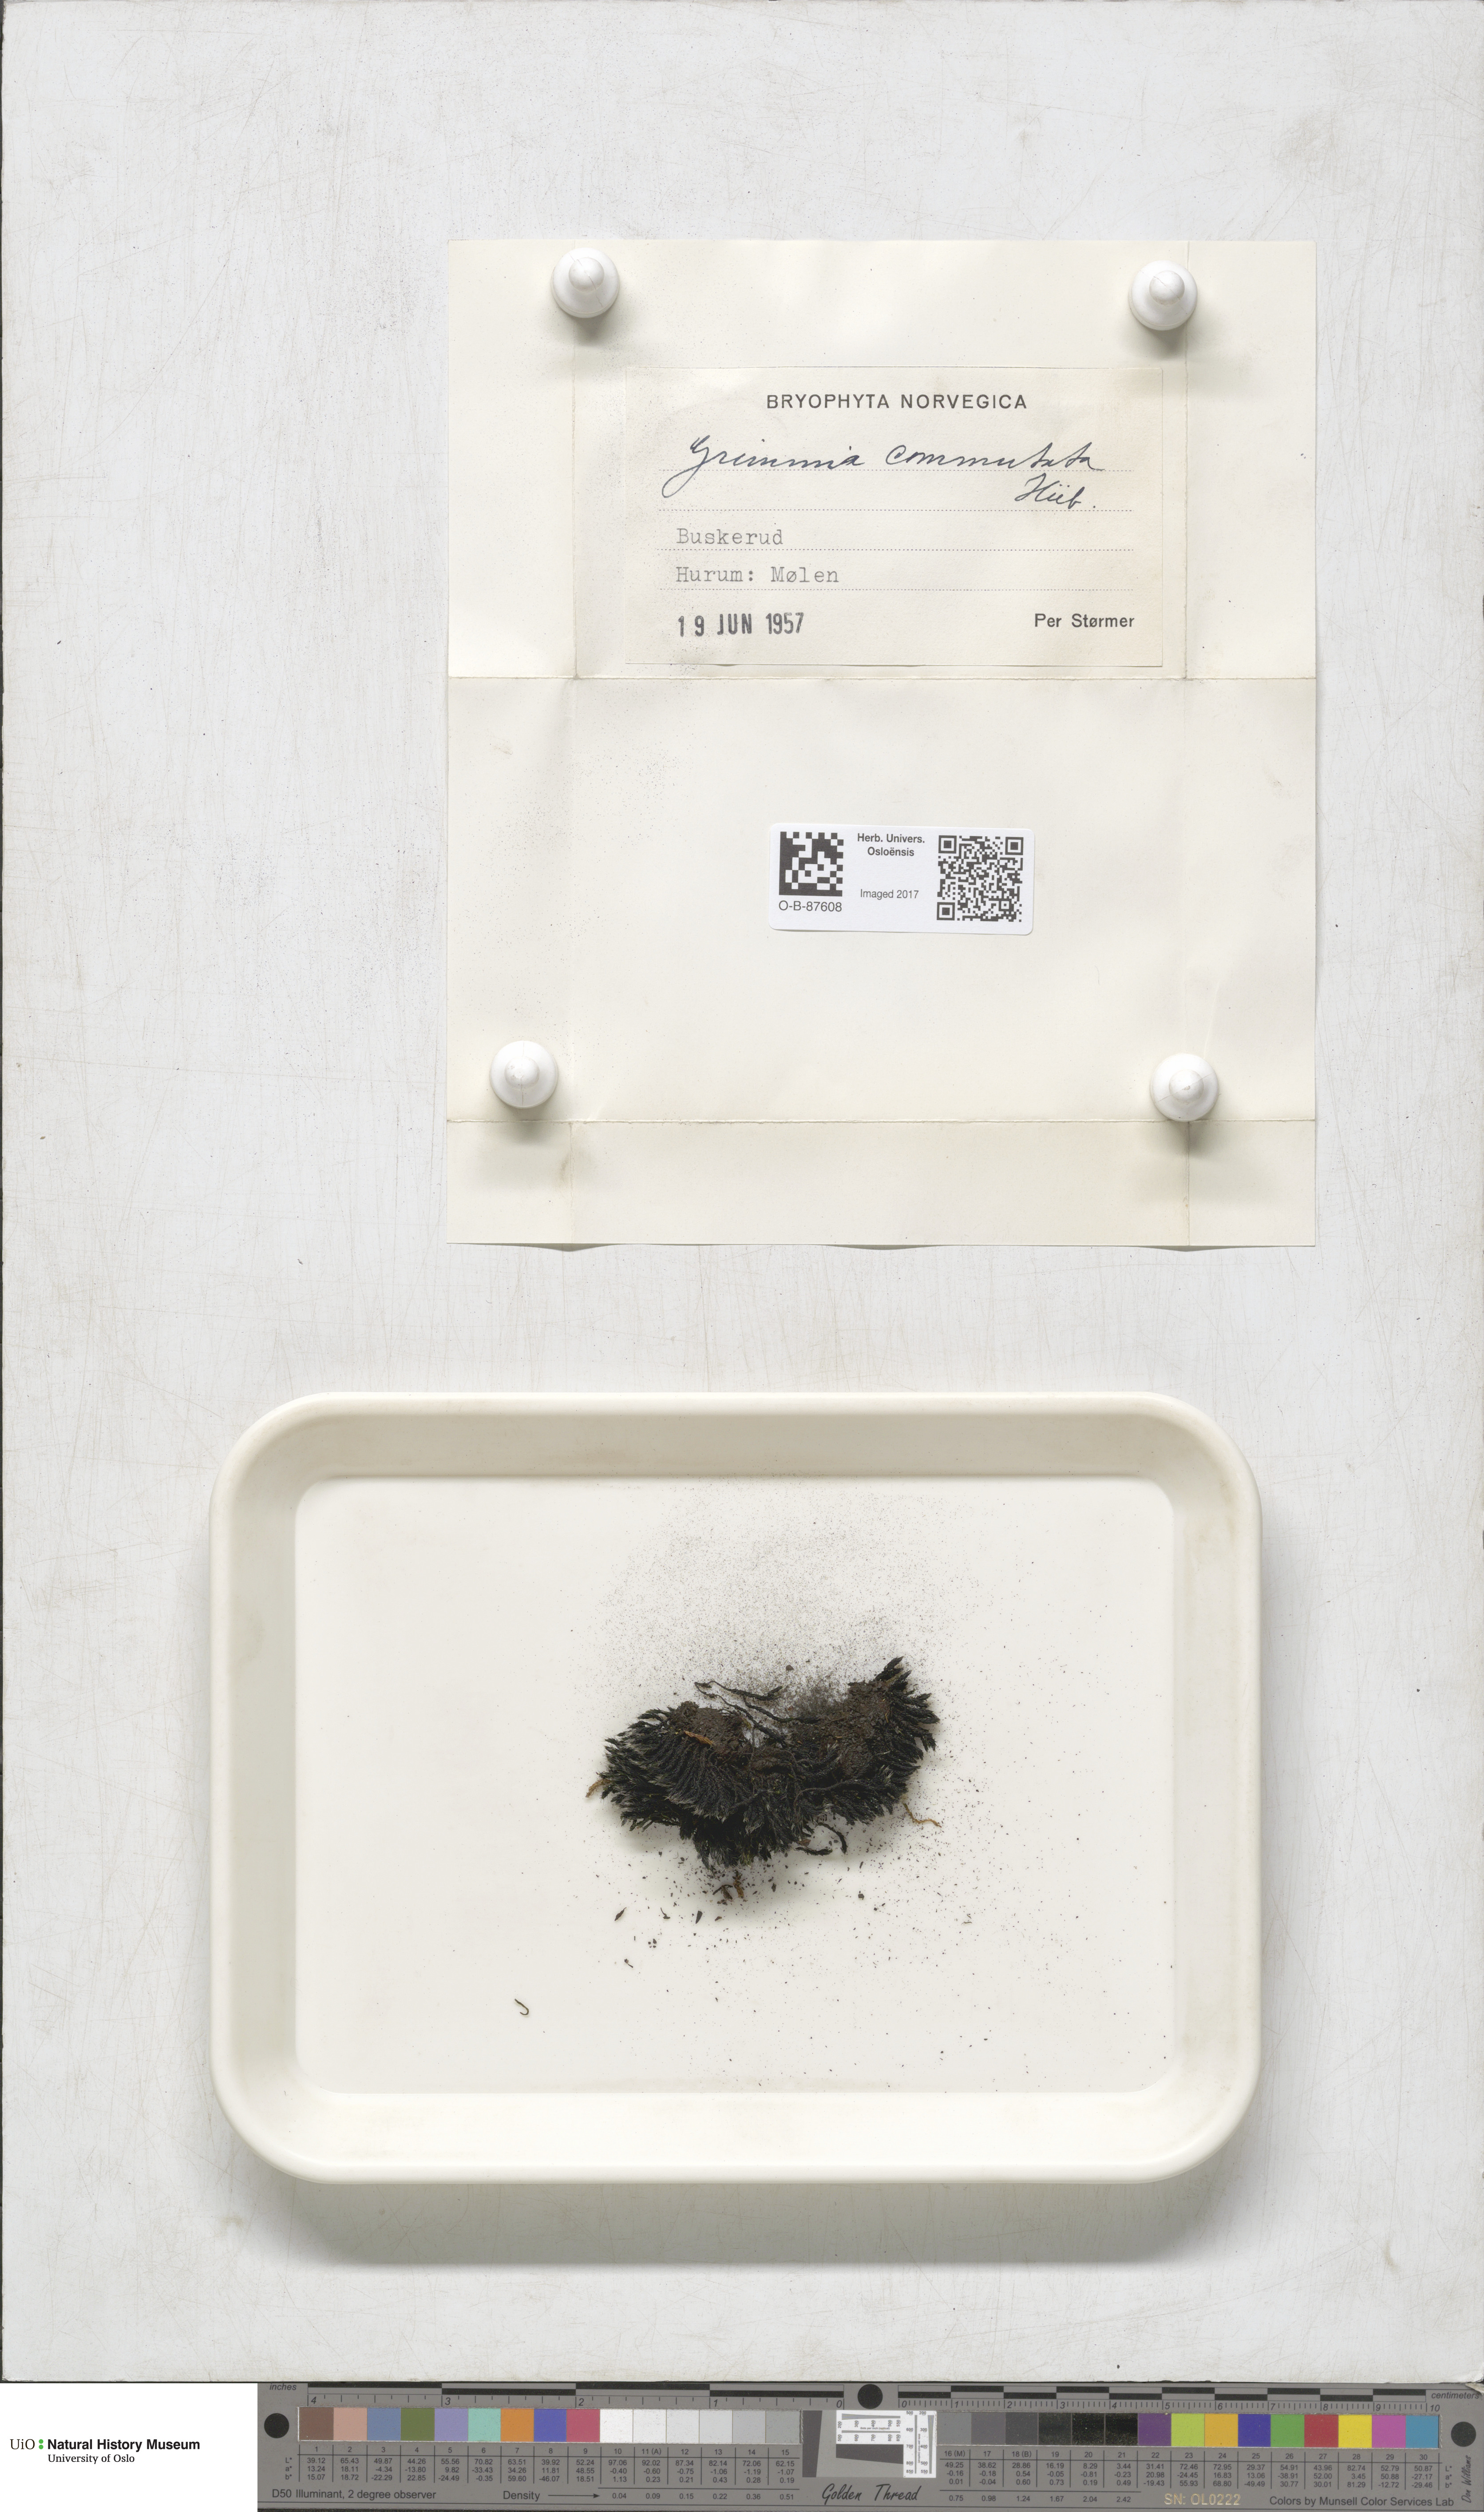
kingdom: Plantae
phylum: Bryophyta
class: Bryopsida
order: Grimmiales
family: Grimmiaceae
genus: Grimmia
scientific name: Grimmia ovalis
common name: Oval grimmia
